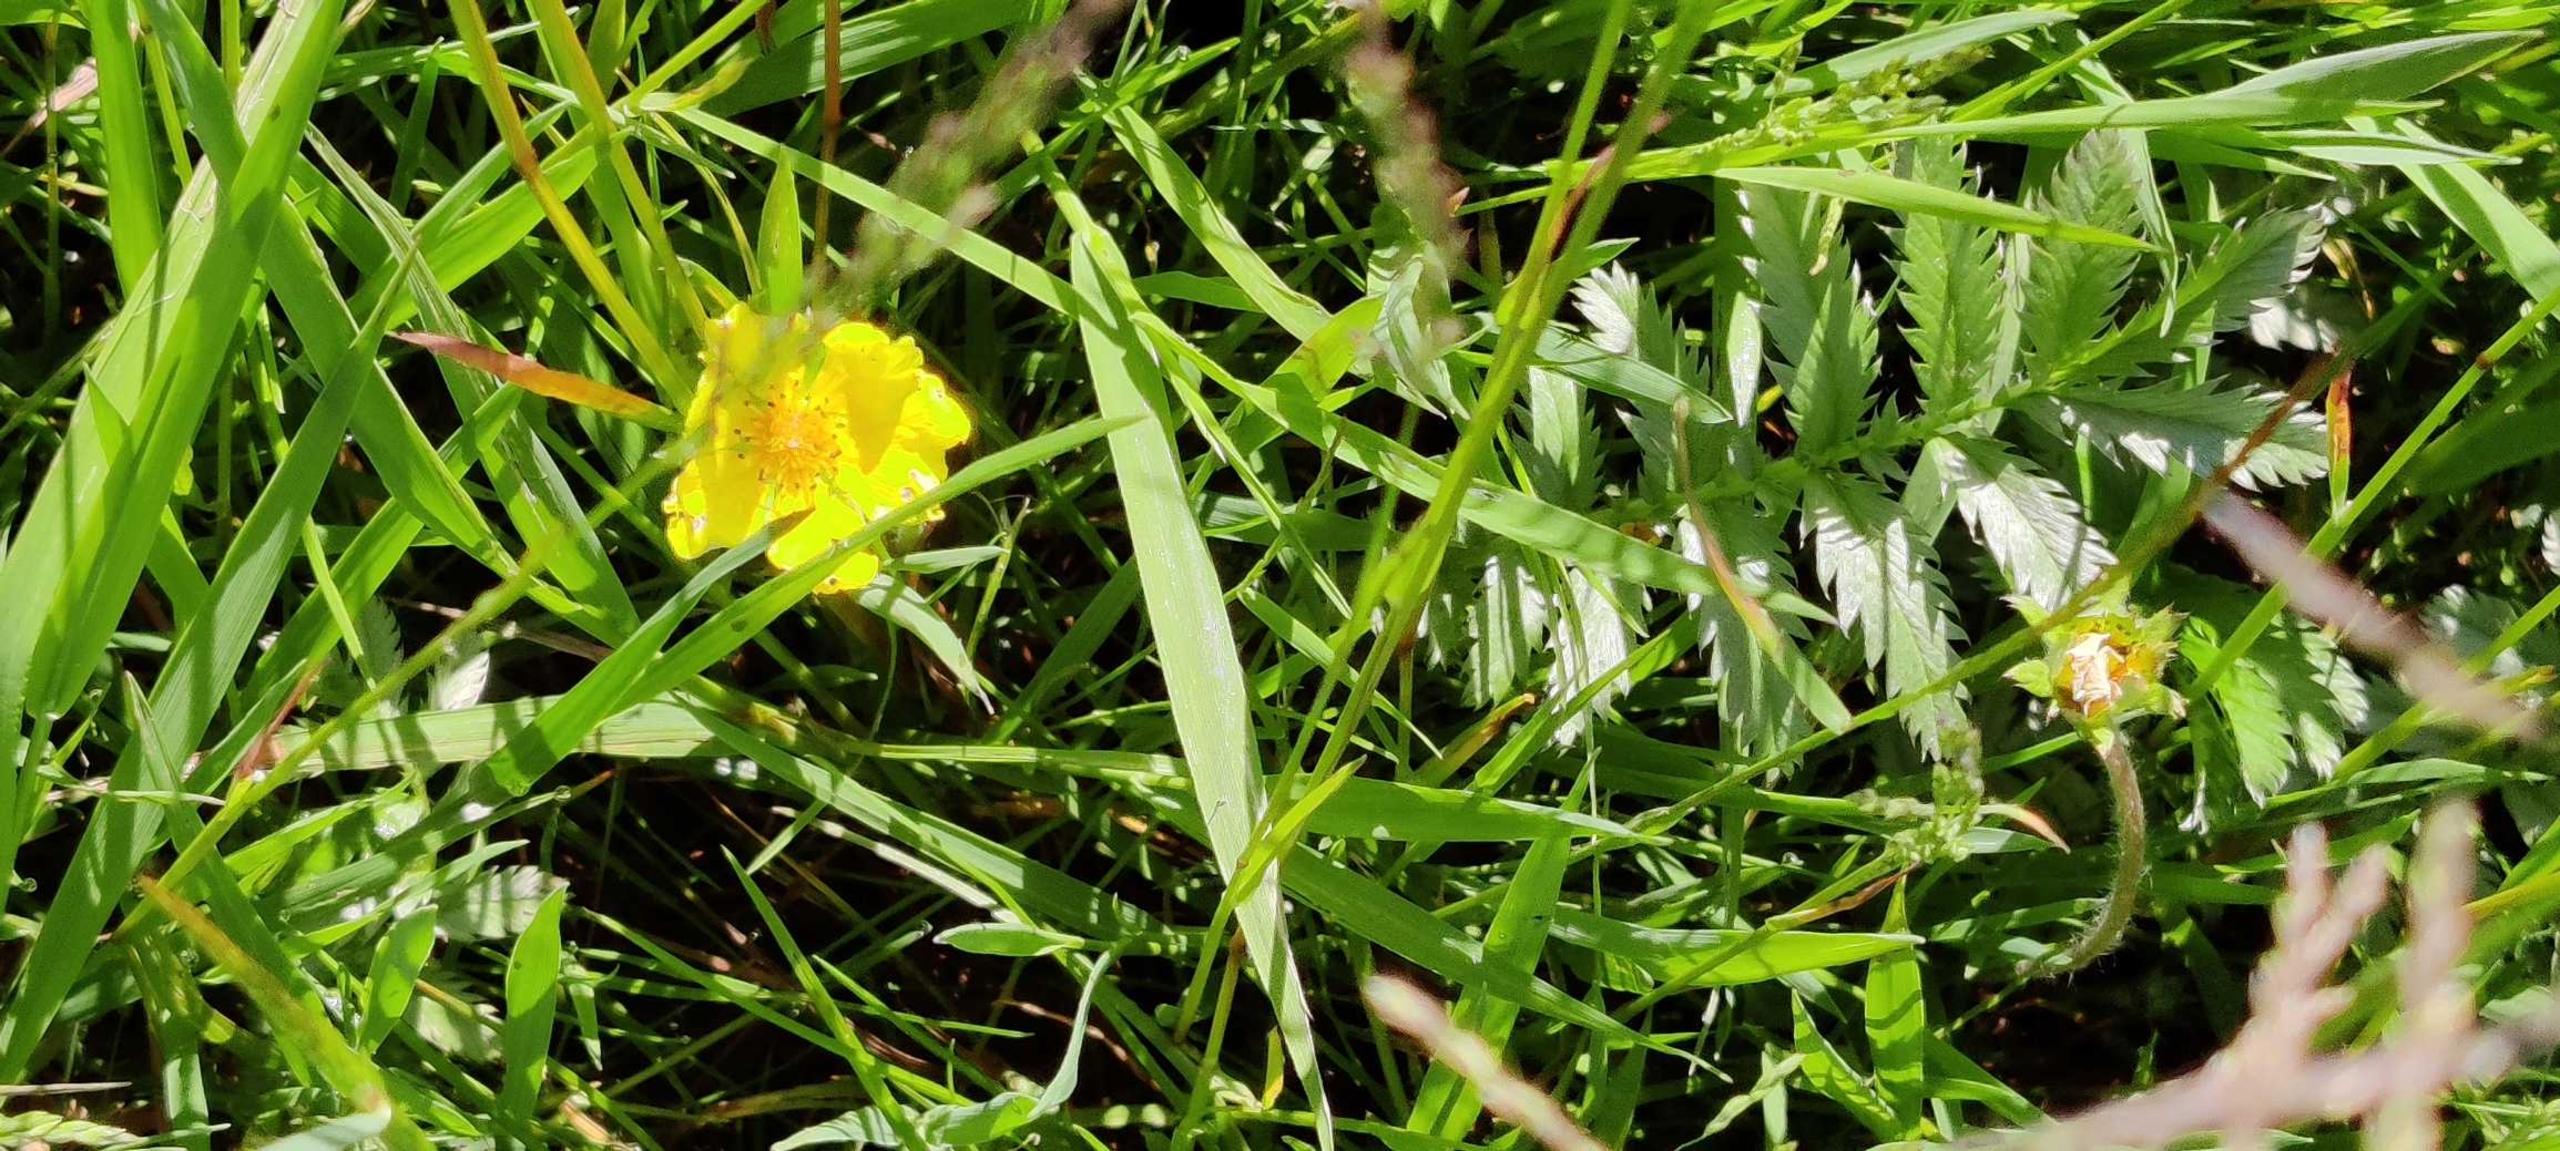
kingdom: Plantae
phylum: Tracheophyta
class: Magnoliopsida
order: Rosales
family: Rosaceae
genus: Argentina
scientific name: Argentina anserina
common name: Gåsepotentil
